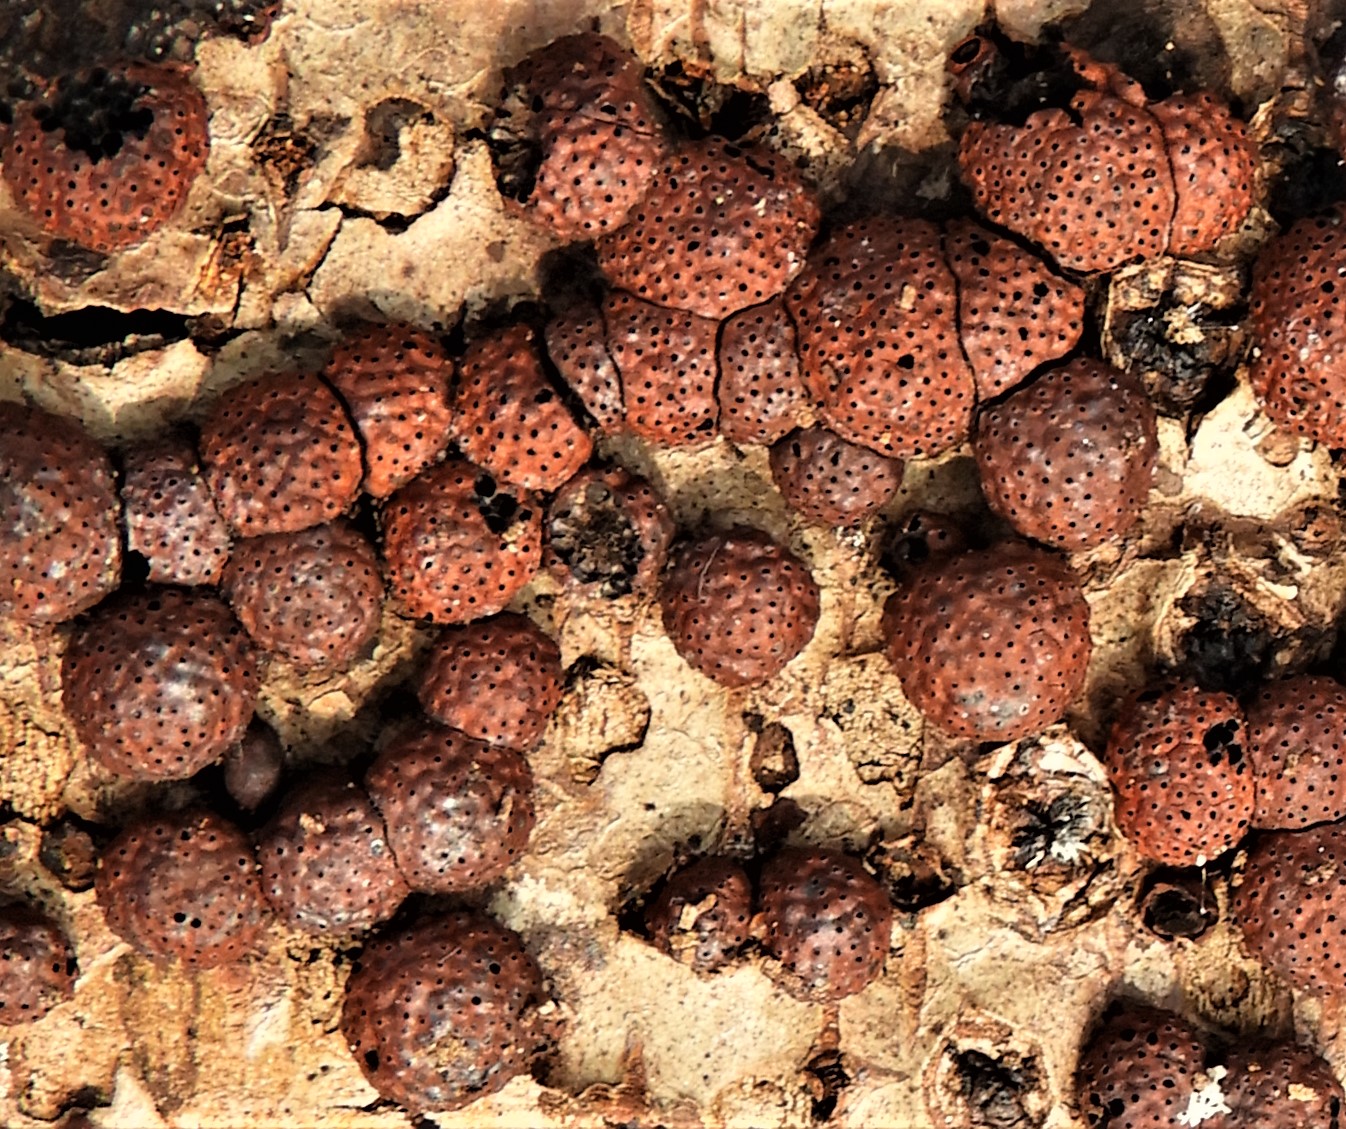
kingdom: Fungi
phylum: Ascomycota
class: Sordariomycetes
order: Xylariales
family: Hypoxylaceae
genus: Hypoxylon
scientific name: Hypoxylon fragiforme
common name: kuljordbær
